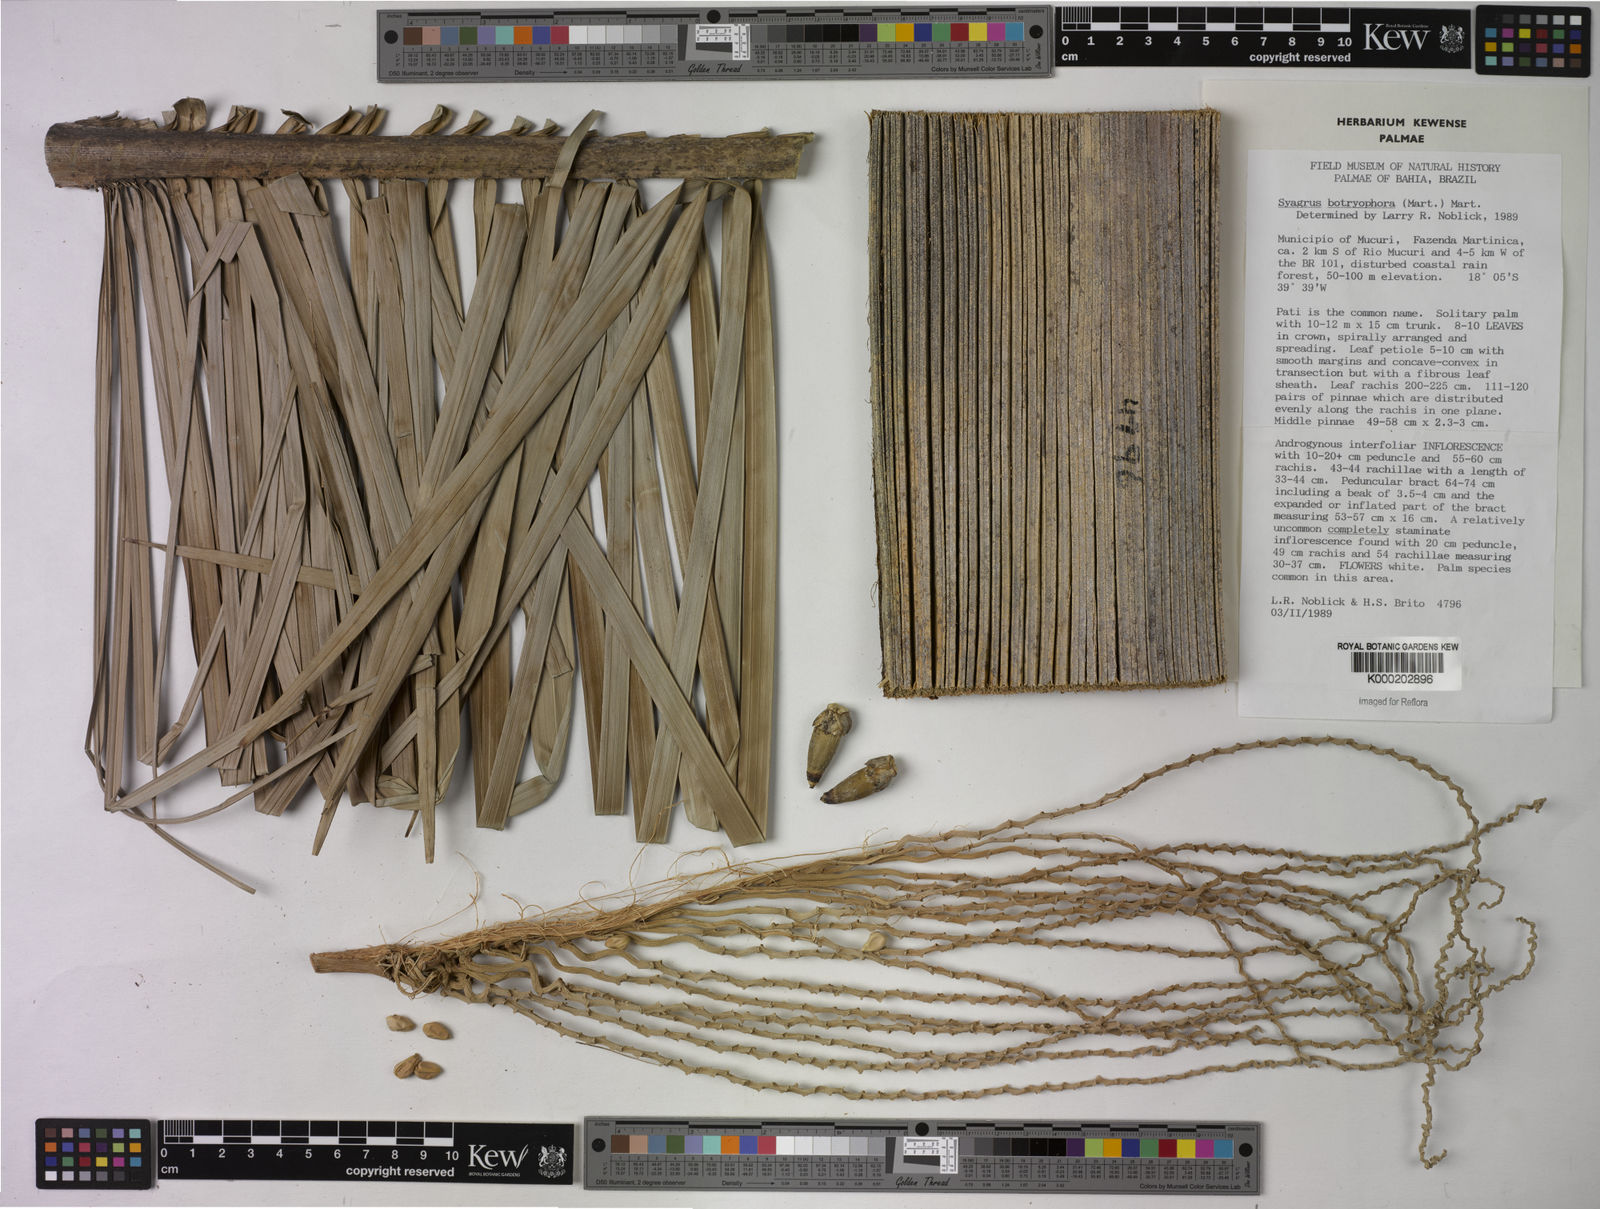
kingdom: Plantae
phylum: Tracheophyta
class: Liliopsida
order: Arecales
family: Arecaceae
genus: Syagrus
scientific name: Syagrus botryophora
